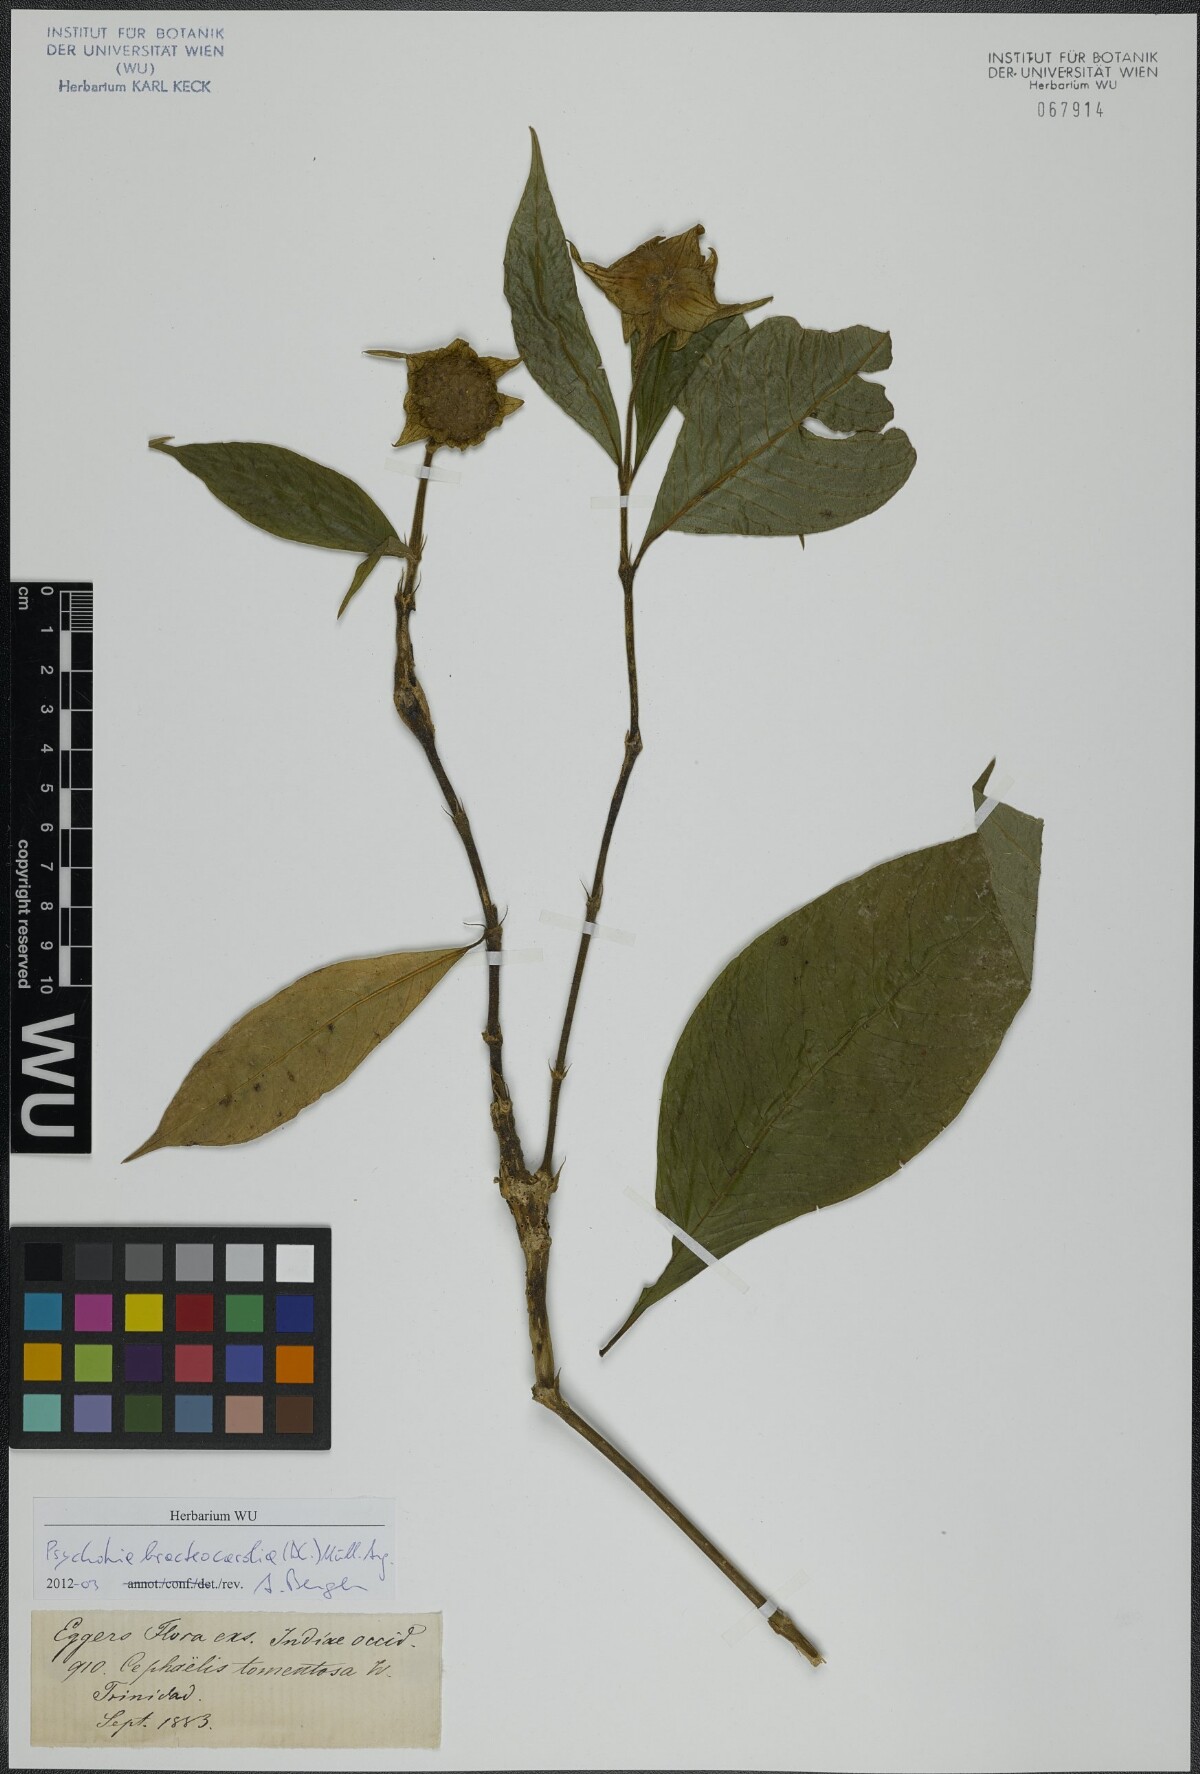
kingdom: Plantae
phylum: Tracheophyta
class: Magnoliopsida
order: Gentianales
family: Rubiaceae
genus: Palicourea
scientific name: Palicourea bracteocardia
